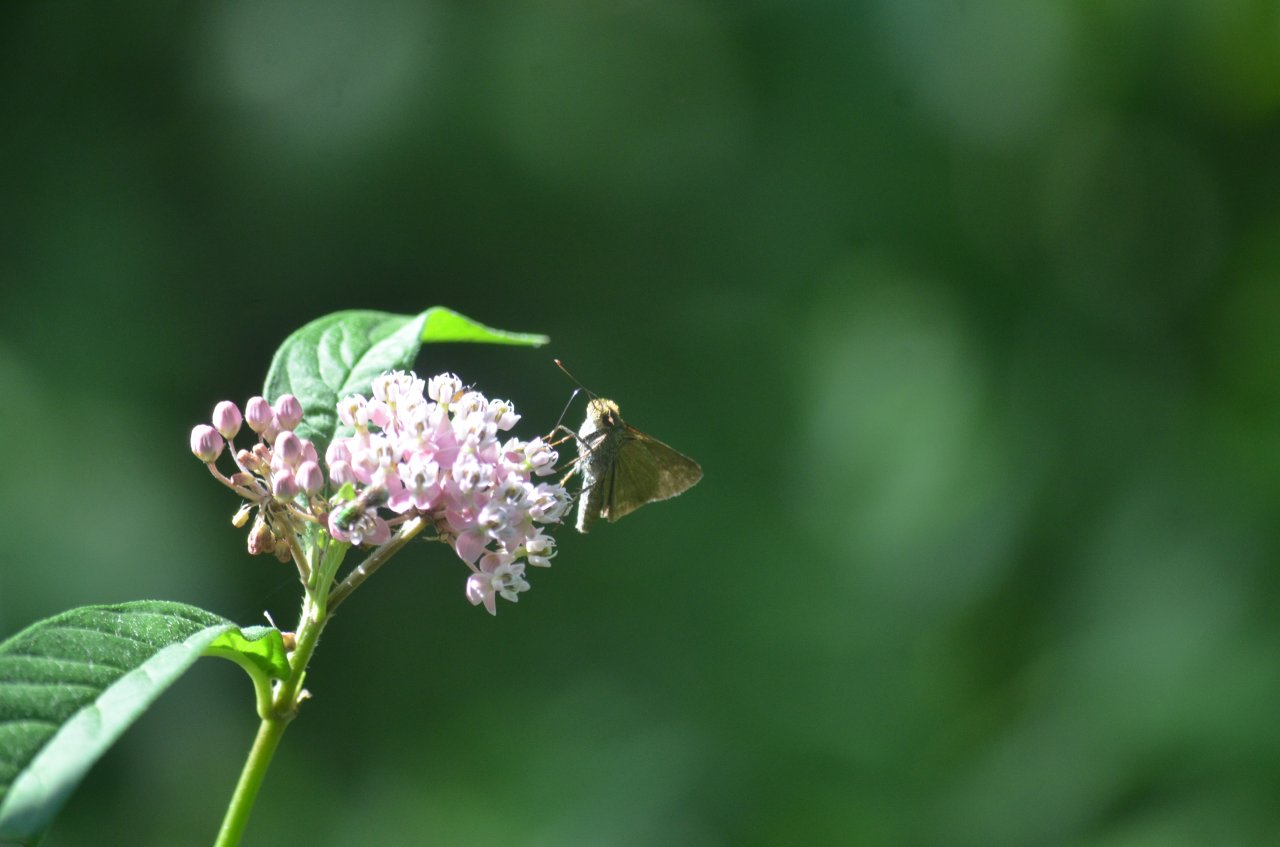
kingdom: Animalia
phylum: Arthropoda
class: Insecta
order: Lepidoptera
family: Hesperiidae
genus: Euphyes
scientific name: Euphyes vestris
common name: Dun Skipper
